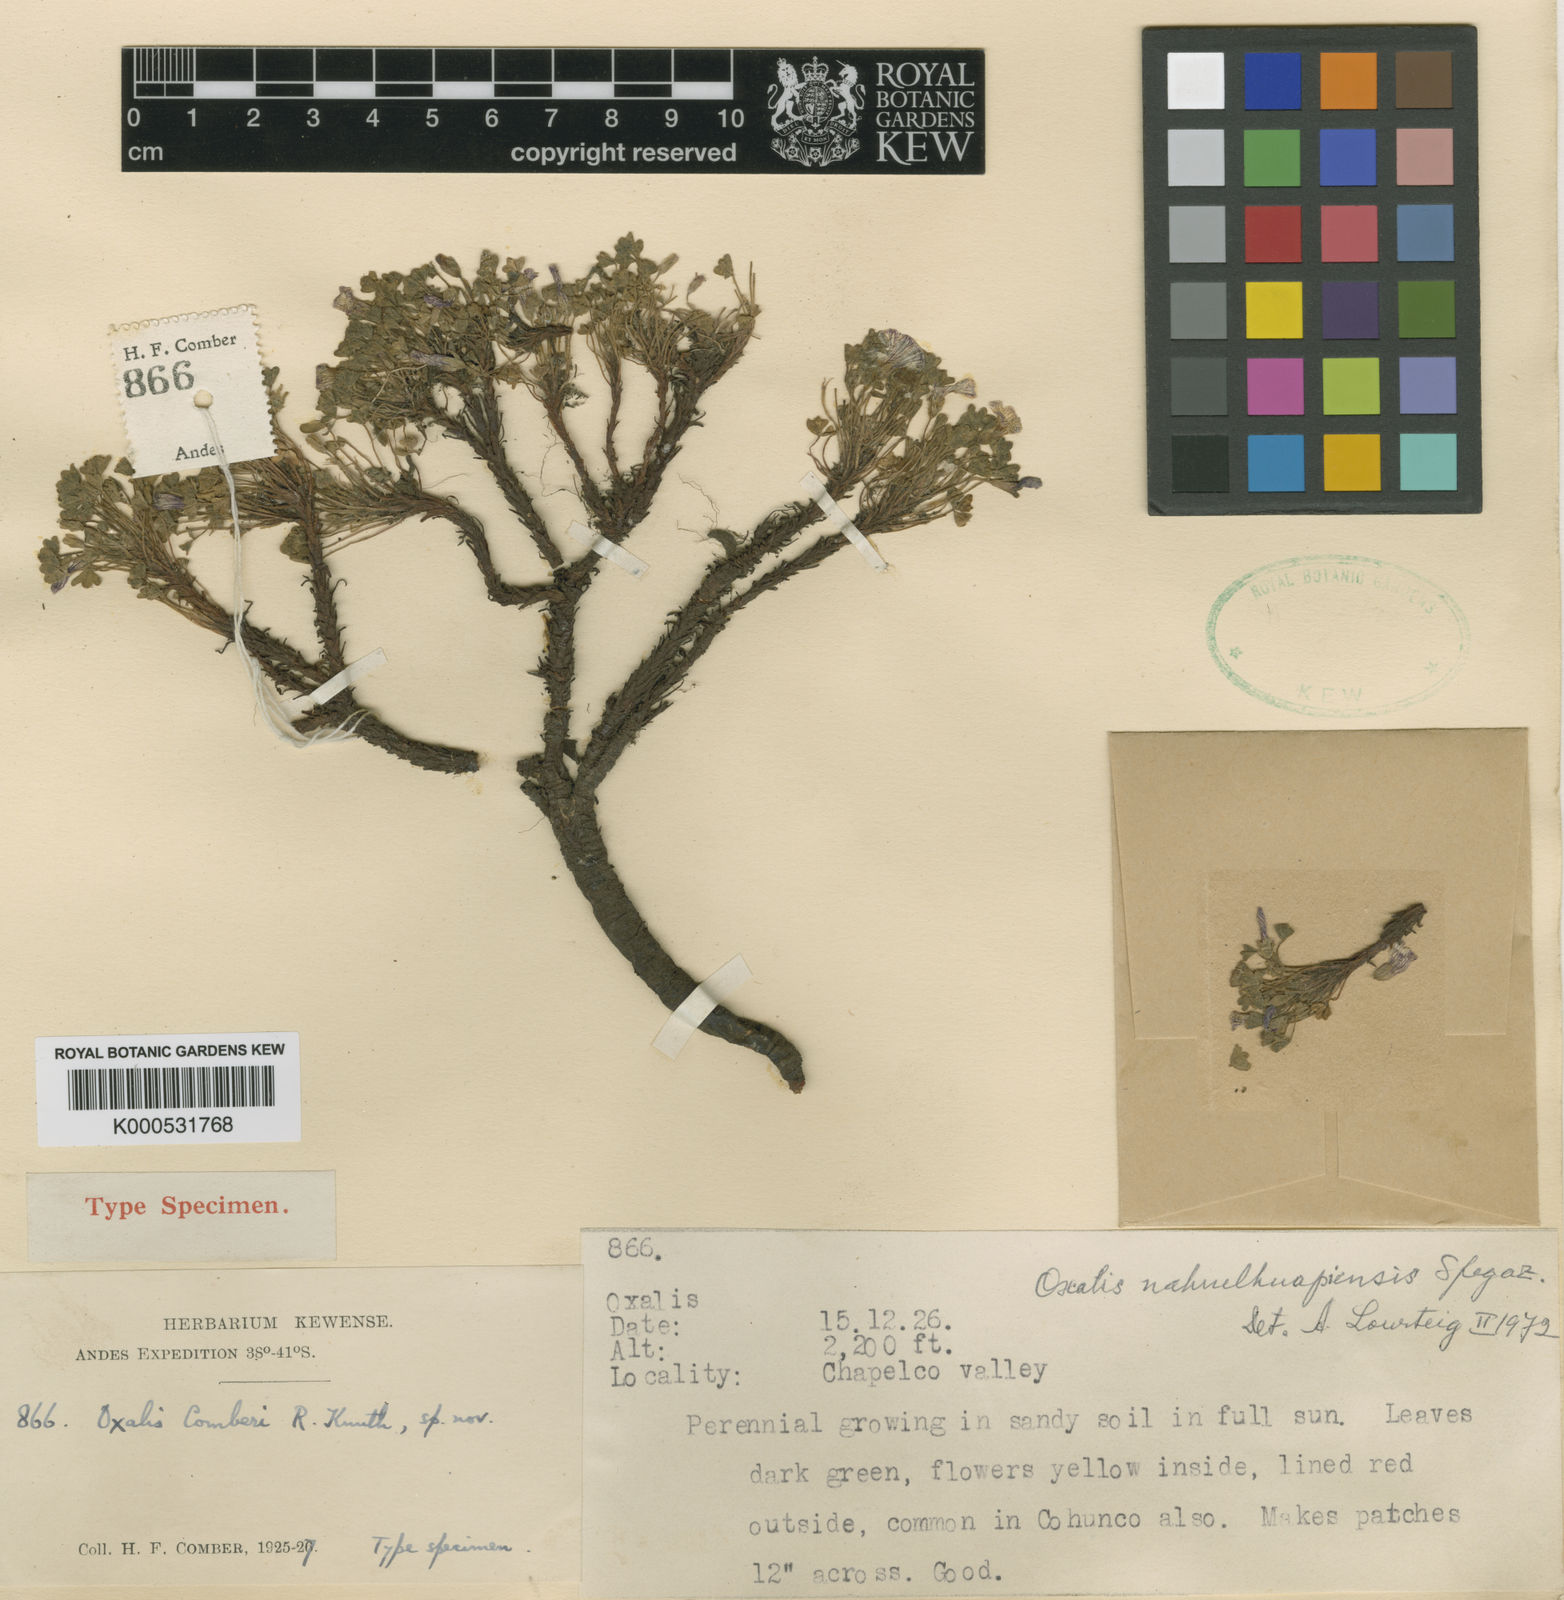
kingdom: Plantae
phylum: Tracheophyta
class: Magnoliopsida
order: Oxalidales
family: Oxalidaceae
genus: Oxalis
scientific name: Oxalis nahuelhuapiensis
